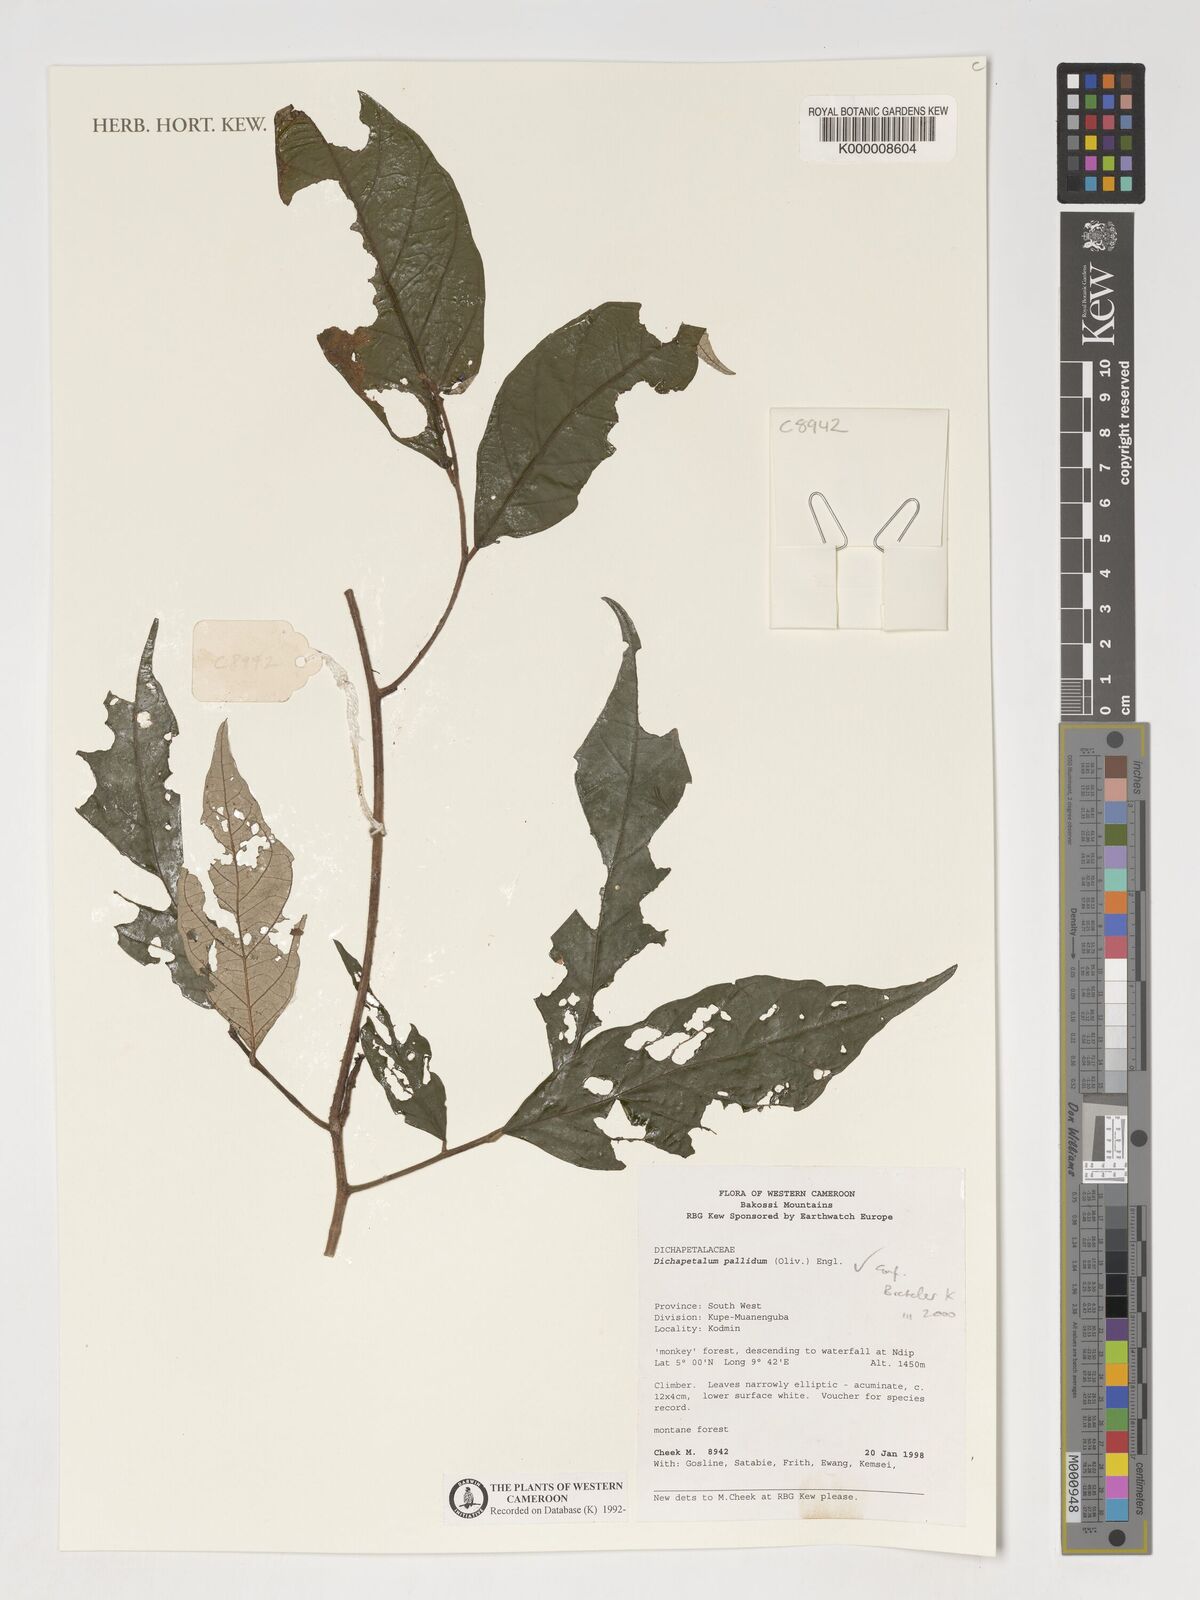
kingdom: Plantae
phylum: Tracheophyta
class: Magnoliopsida
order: Malpighiales
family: Dichapetalaceae
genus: Dichapetalum
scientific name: Dichapetalum pallidum
